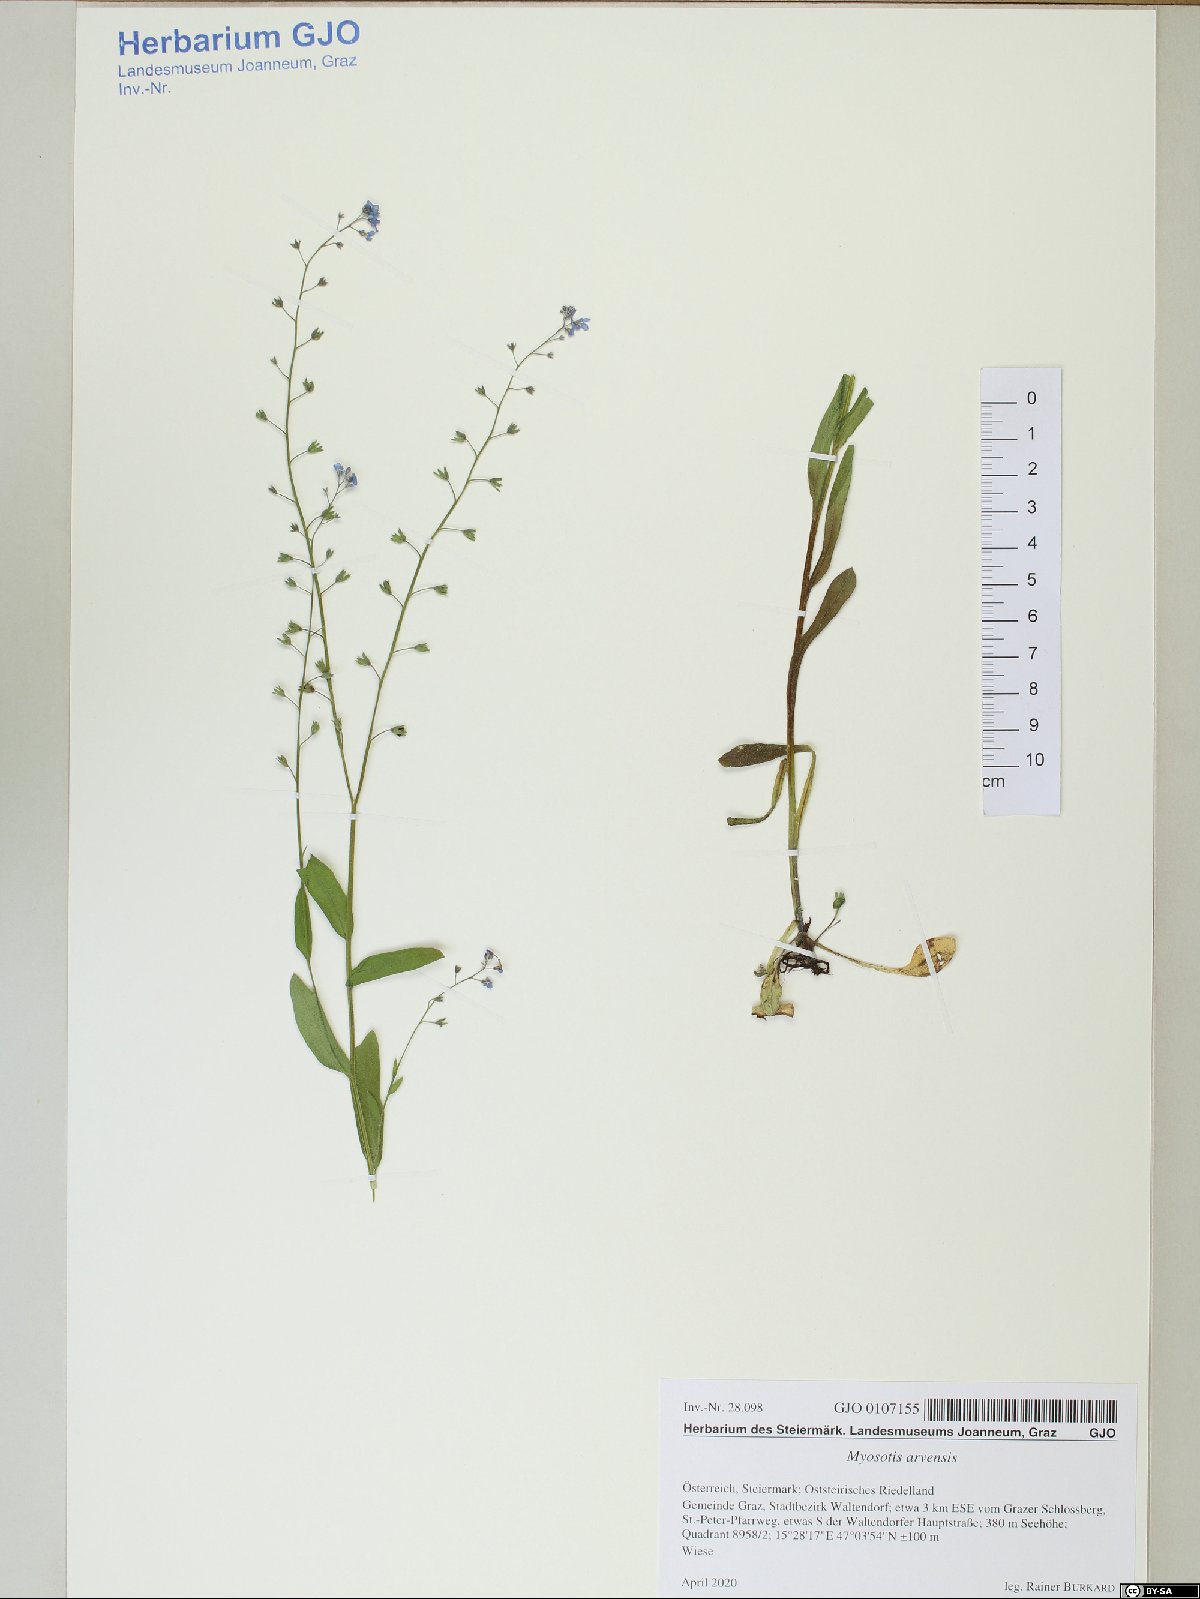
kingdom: Plantae
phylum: Tracheophyta
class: Magnoliopsida
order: Boraginales
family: Boraginaceae
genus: Myosotis
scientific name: Myosotis arvensis
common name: Field forget-me-not
